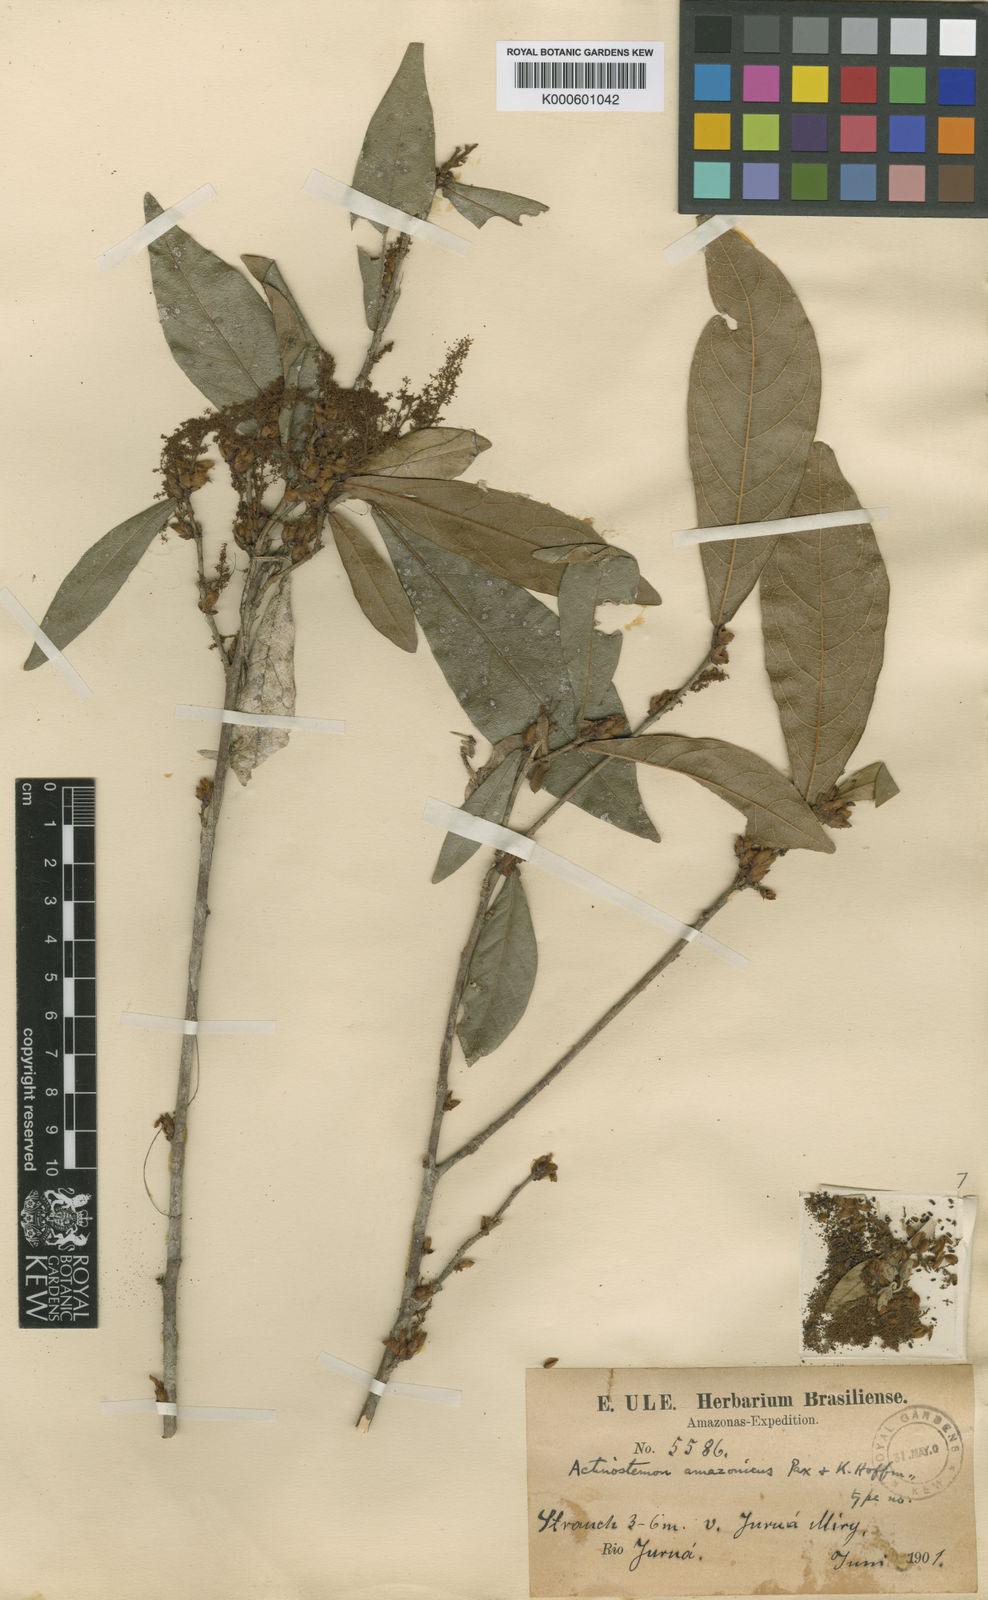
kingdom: Plantae
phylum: Tracheophyta
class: Magnoliopsida
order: Malpighiales
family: Euphorbiaceae
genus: Actinostemon
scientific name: Actinostemon amazonicus
